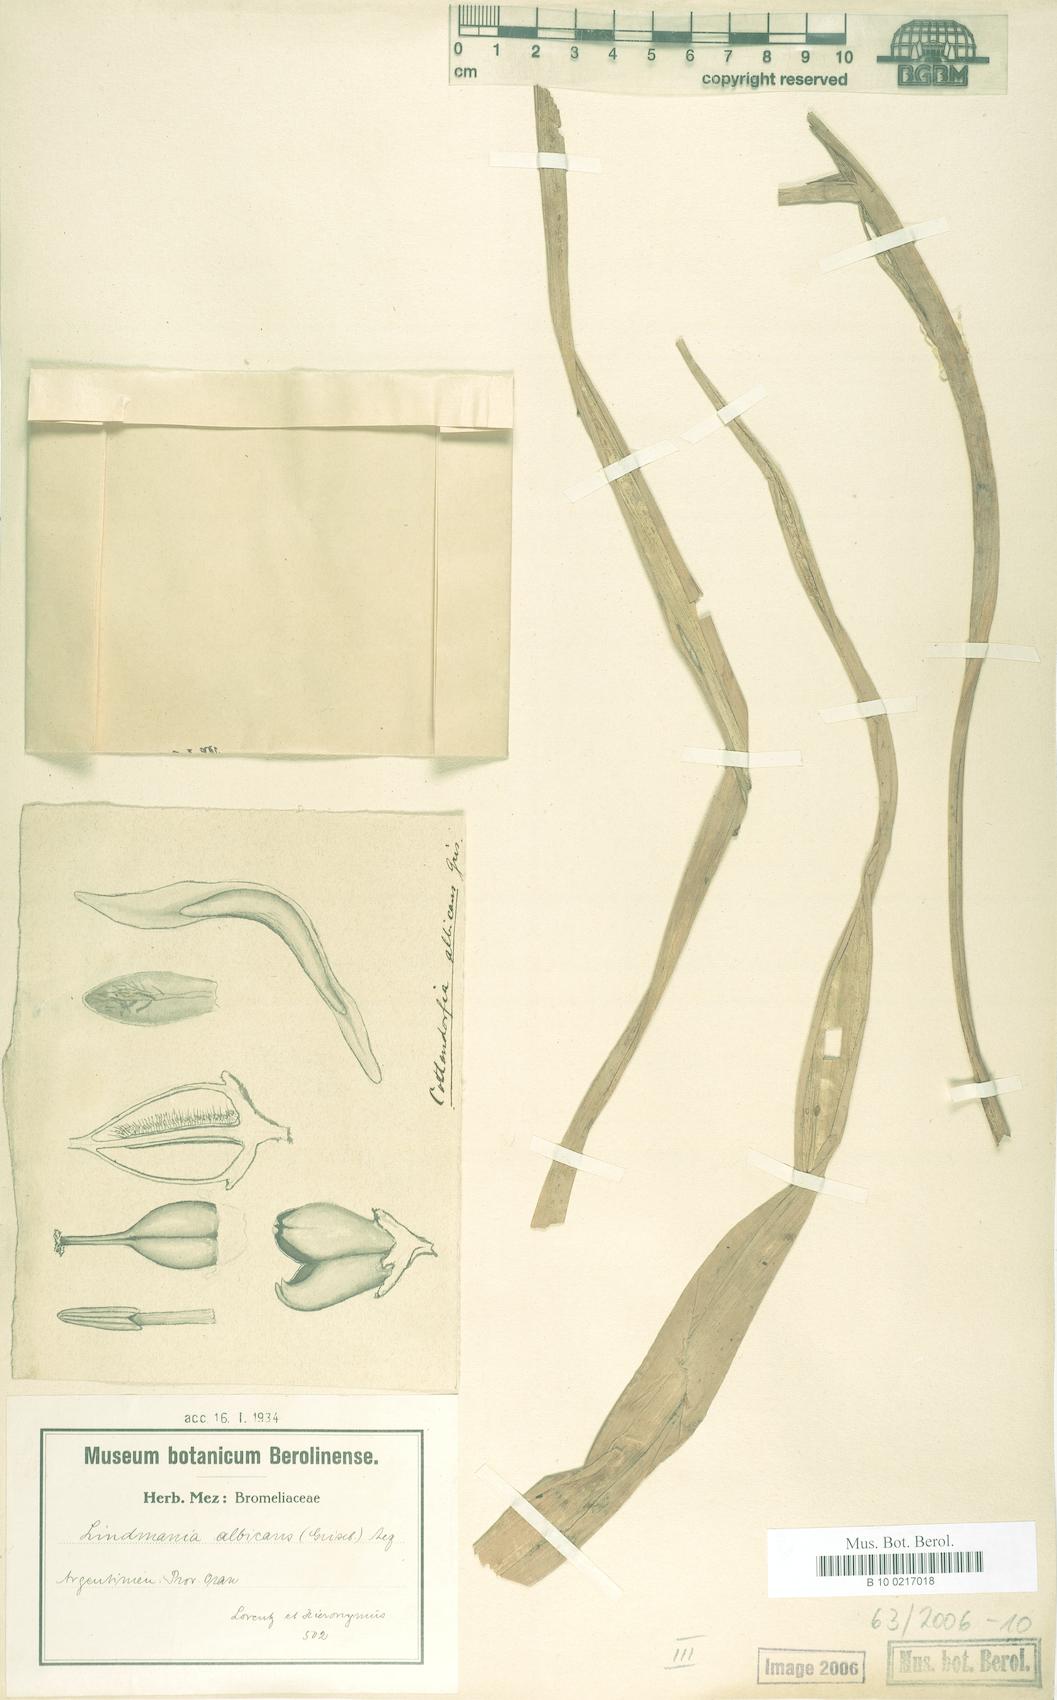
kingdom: Plantae
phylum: Tracheophyta
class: Liliopsida
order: Poales
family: Bromeliaceae
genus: Fosterella
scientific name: Fosterella albicans
